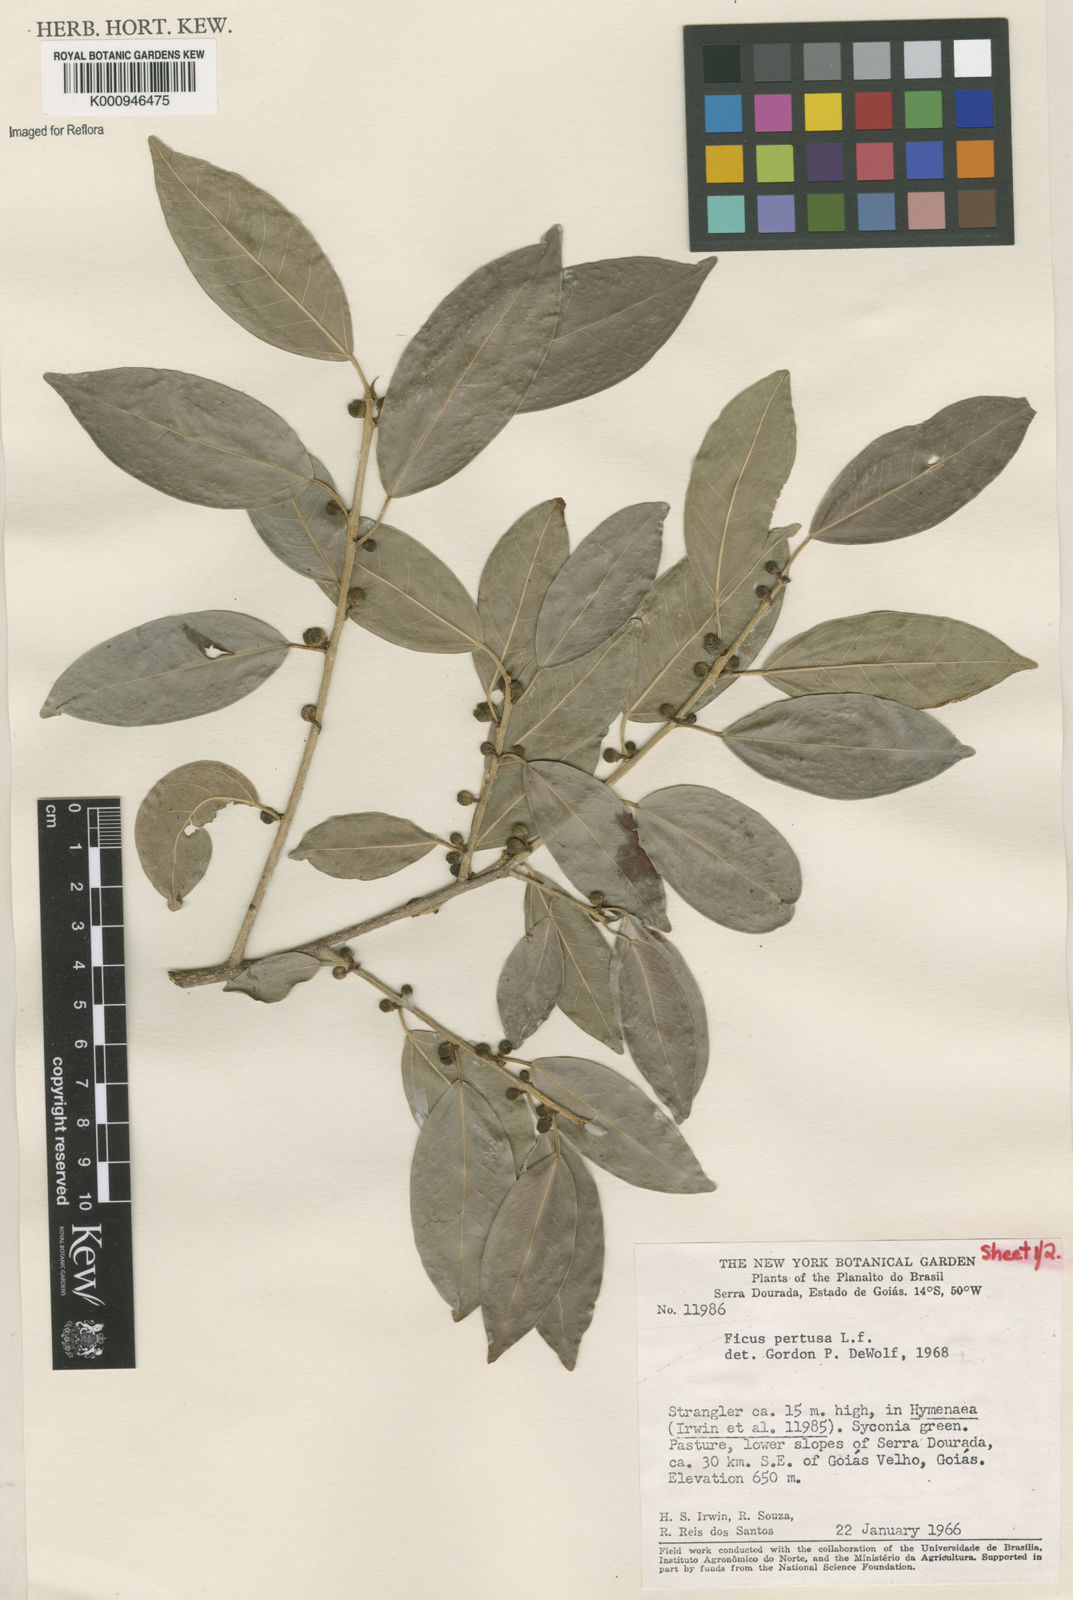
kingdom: Plantae
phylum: Tracheophyta
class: Magnoliopsida
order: Rosales
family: Moraceae
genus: Ficus
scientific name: Ficus pertusa
